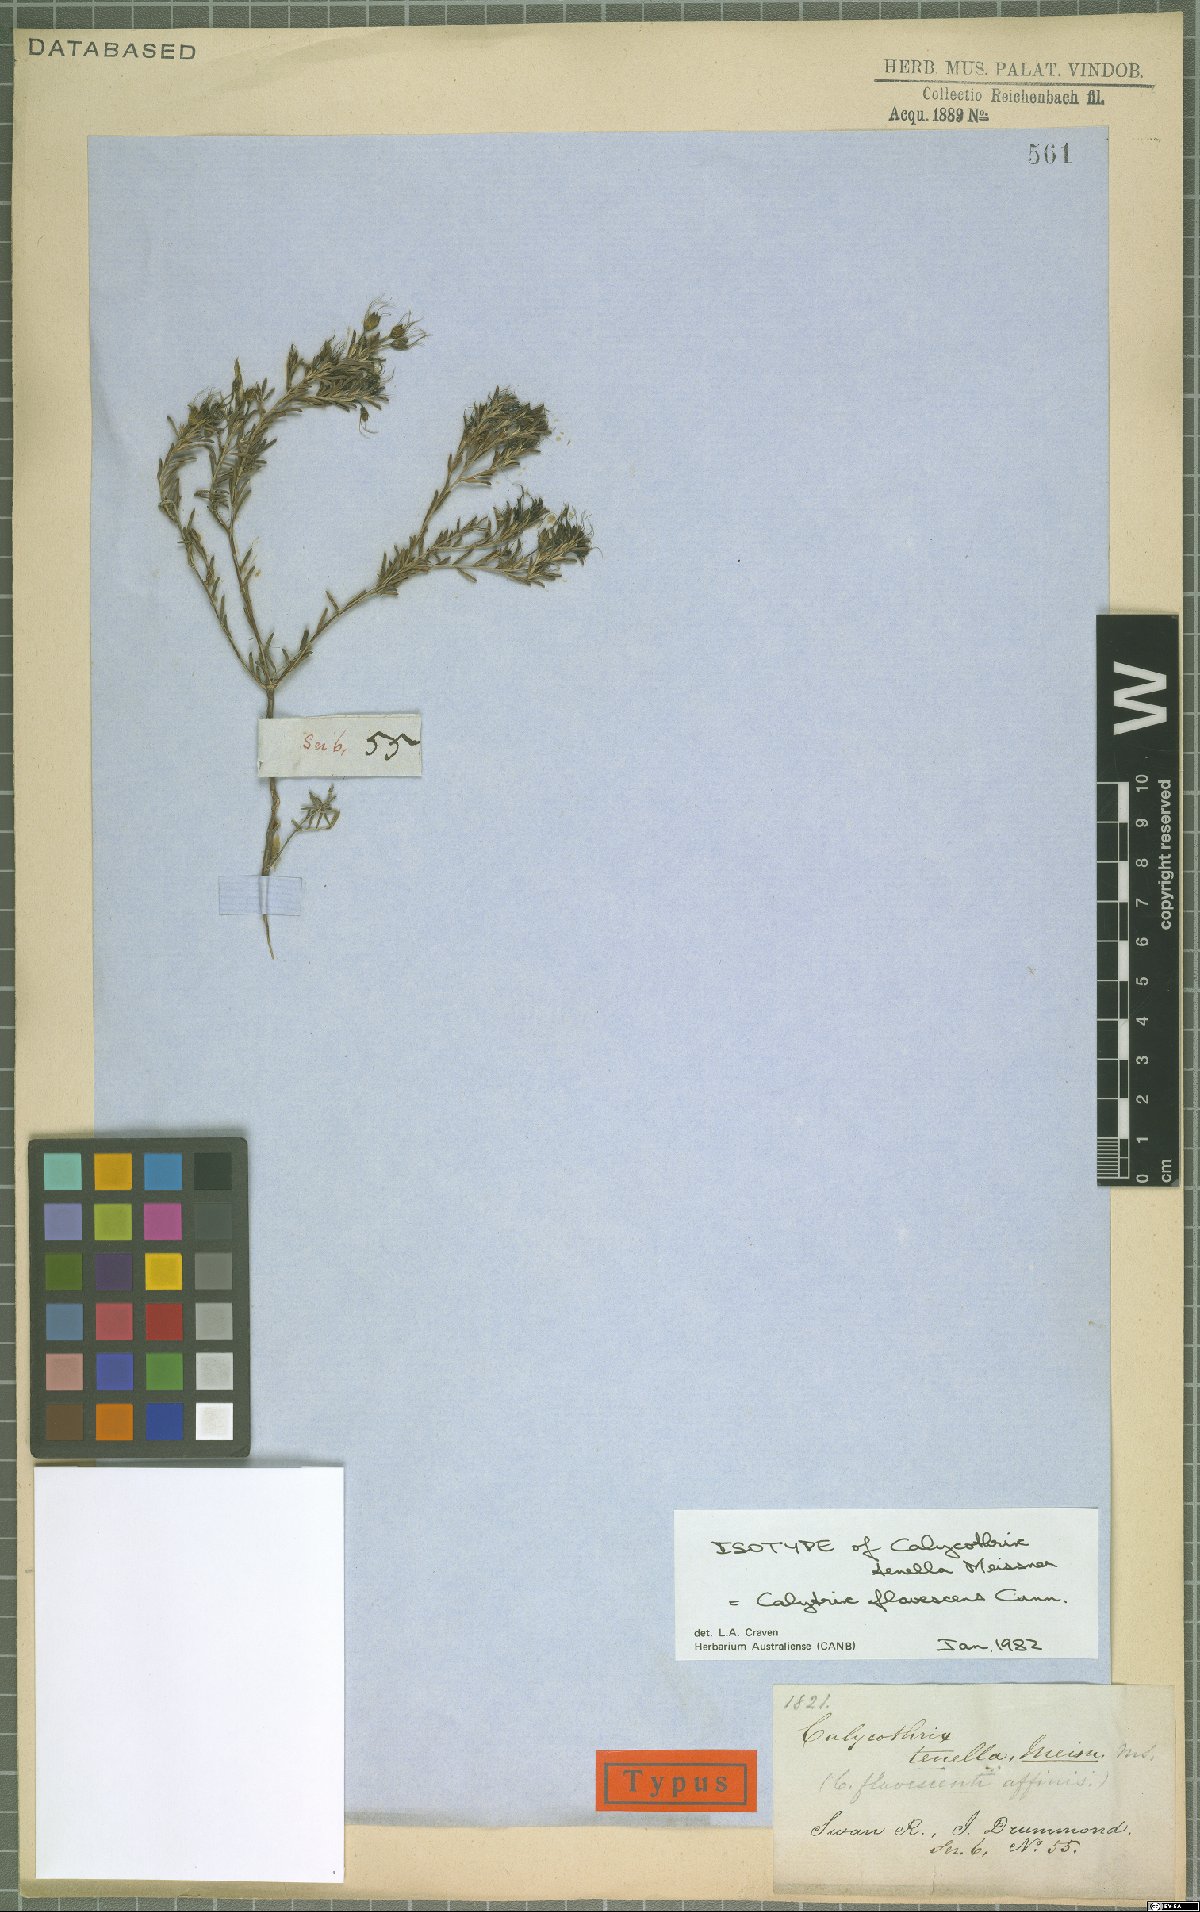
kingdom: Plantae
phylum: Tracheophyta
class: Magnoliopsida
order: Myrtales
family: Myrtaceae
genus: Calytrix
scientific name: Calytrix flavescens
